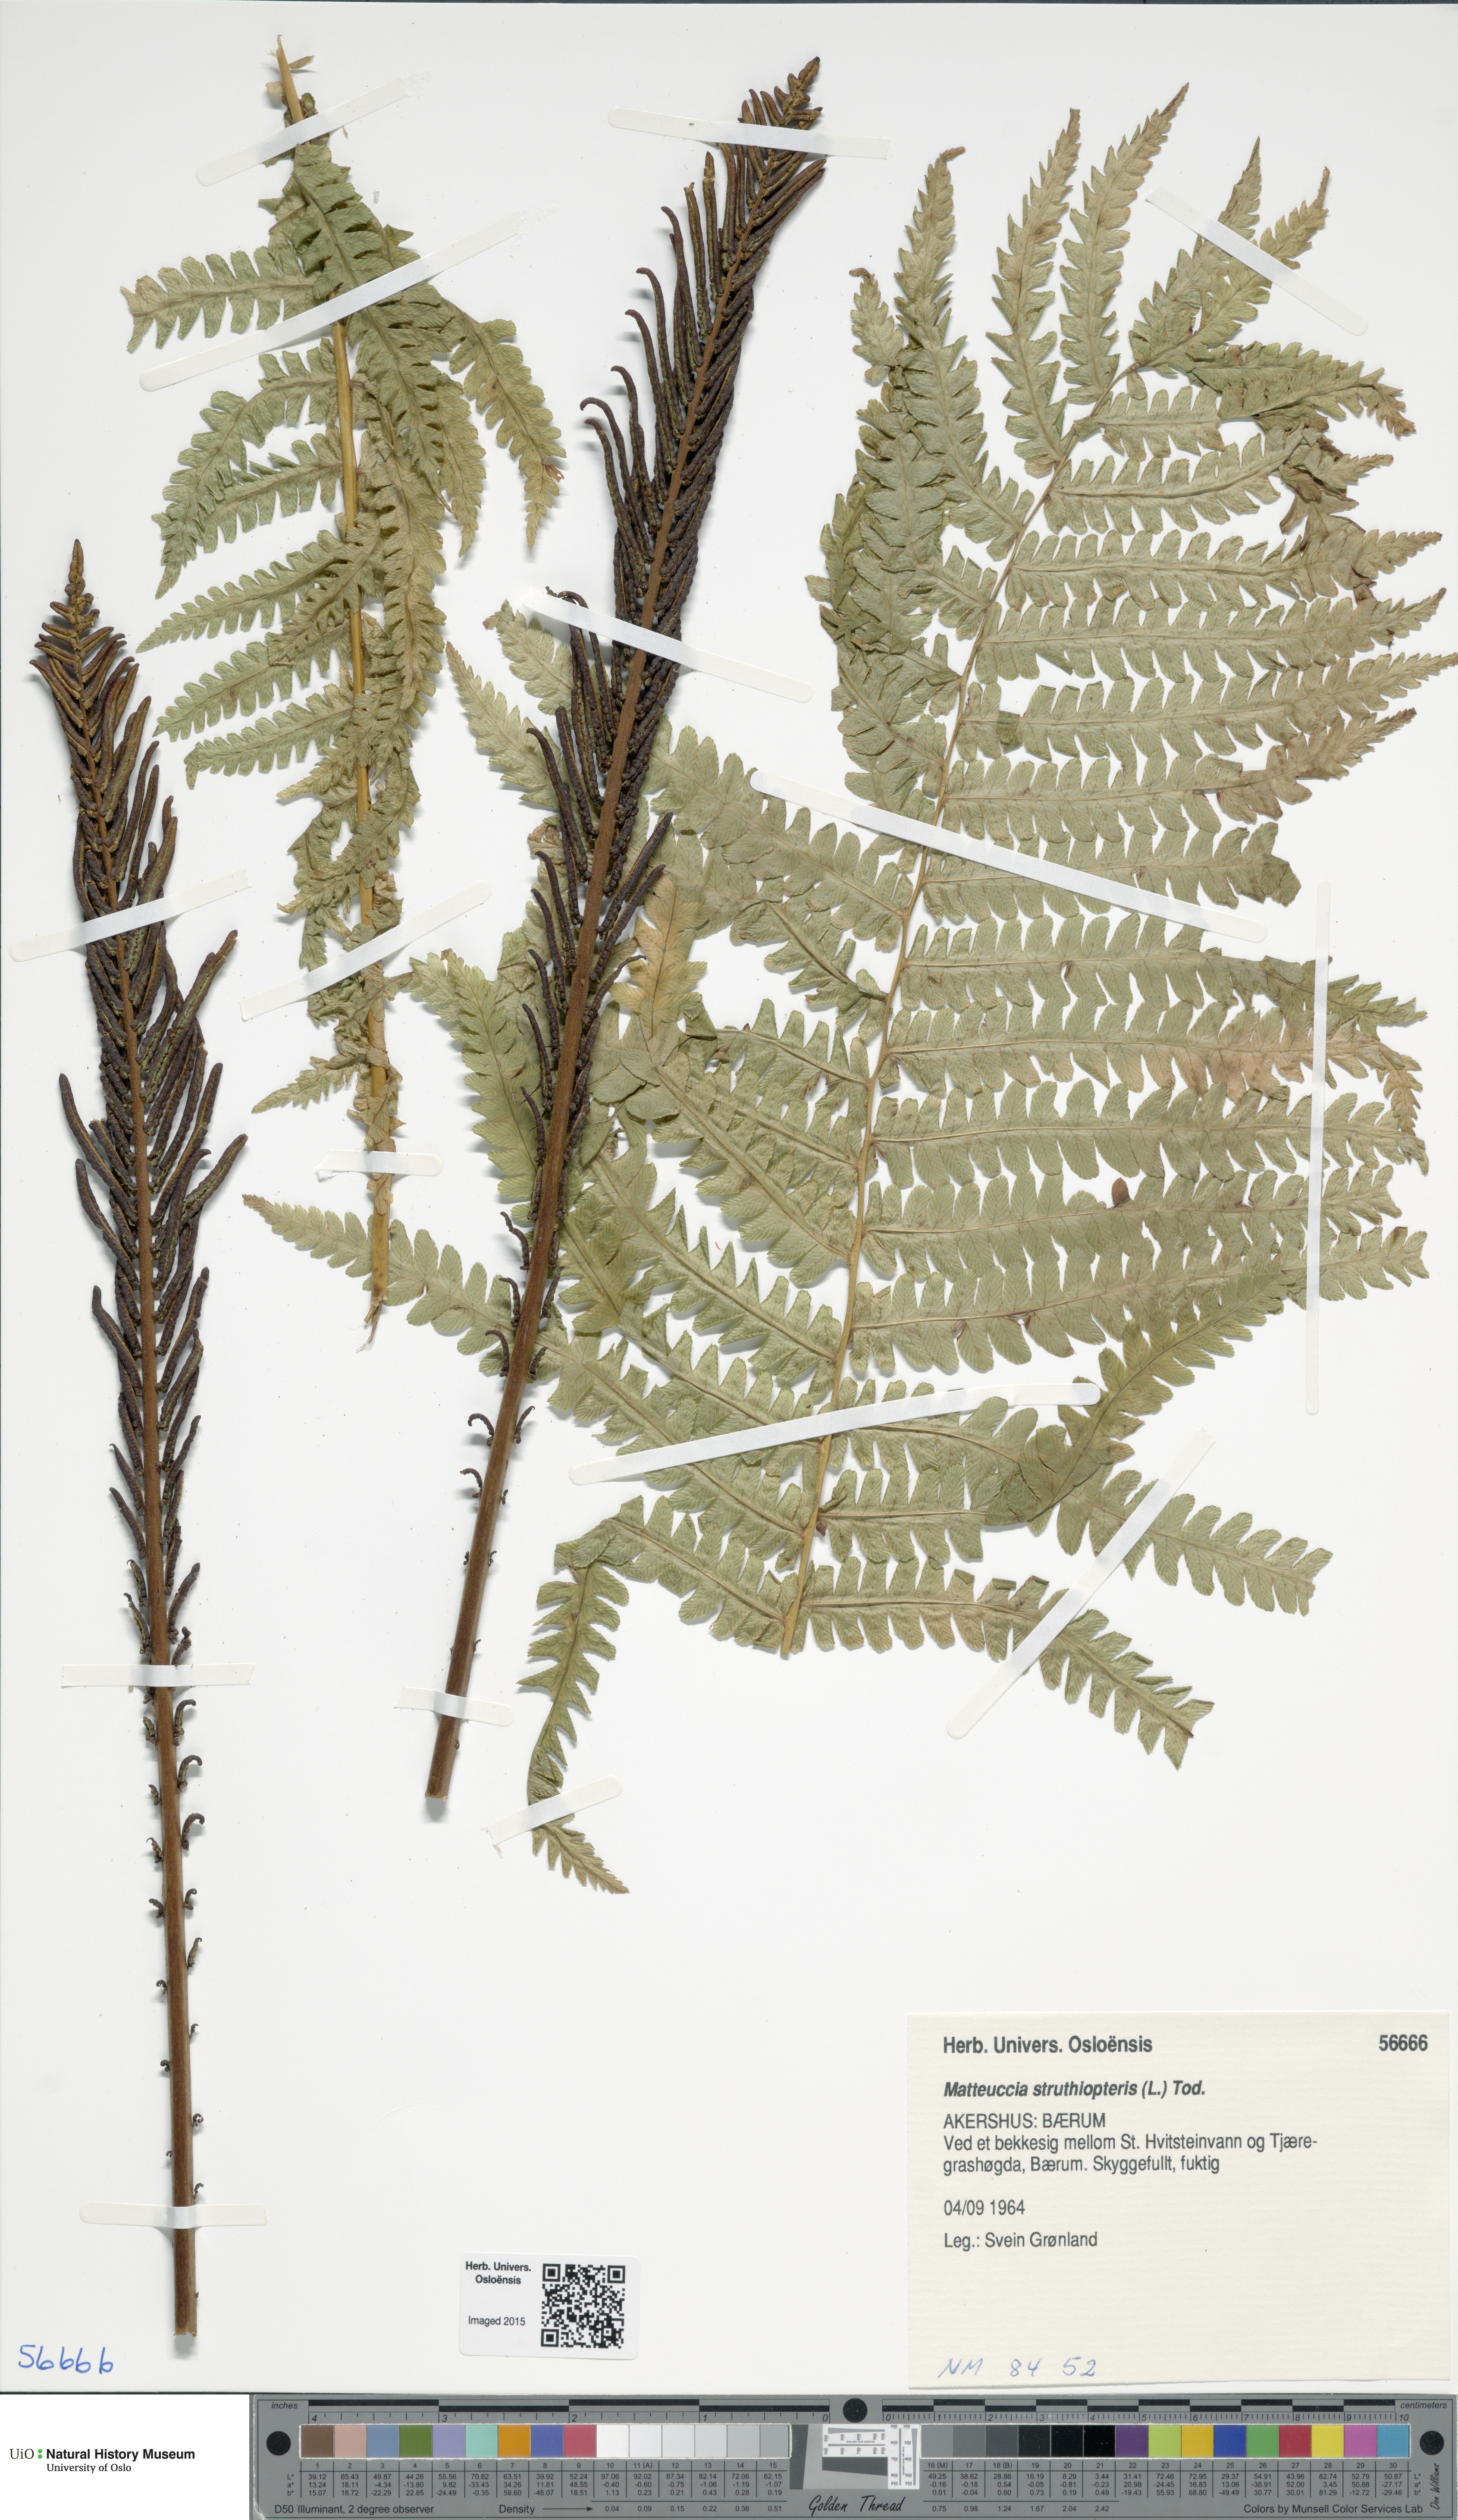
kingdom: Plantae
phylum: Tracheophyta
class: Polypodiopsida
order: Polypodiales
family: Onocleaceae
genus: Matteuccia
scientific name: Matteuccia struthiopteris
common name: Ostrich fern
